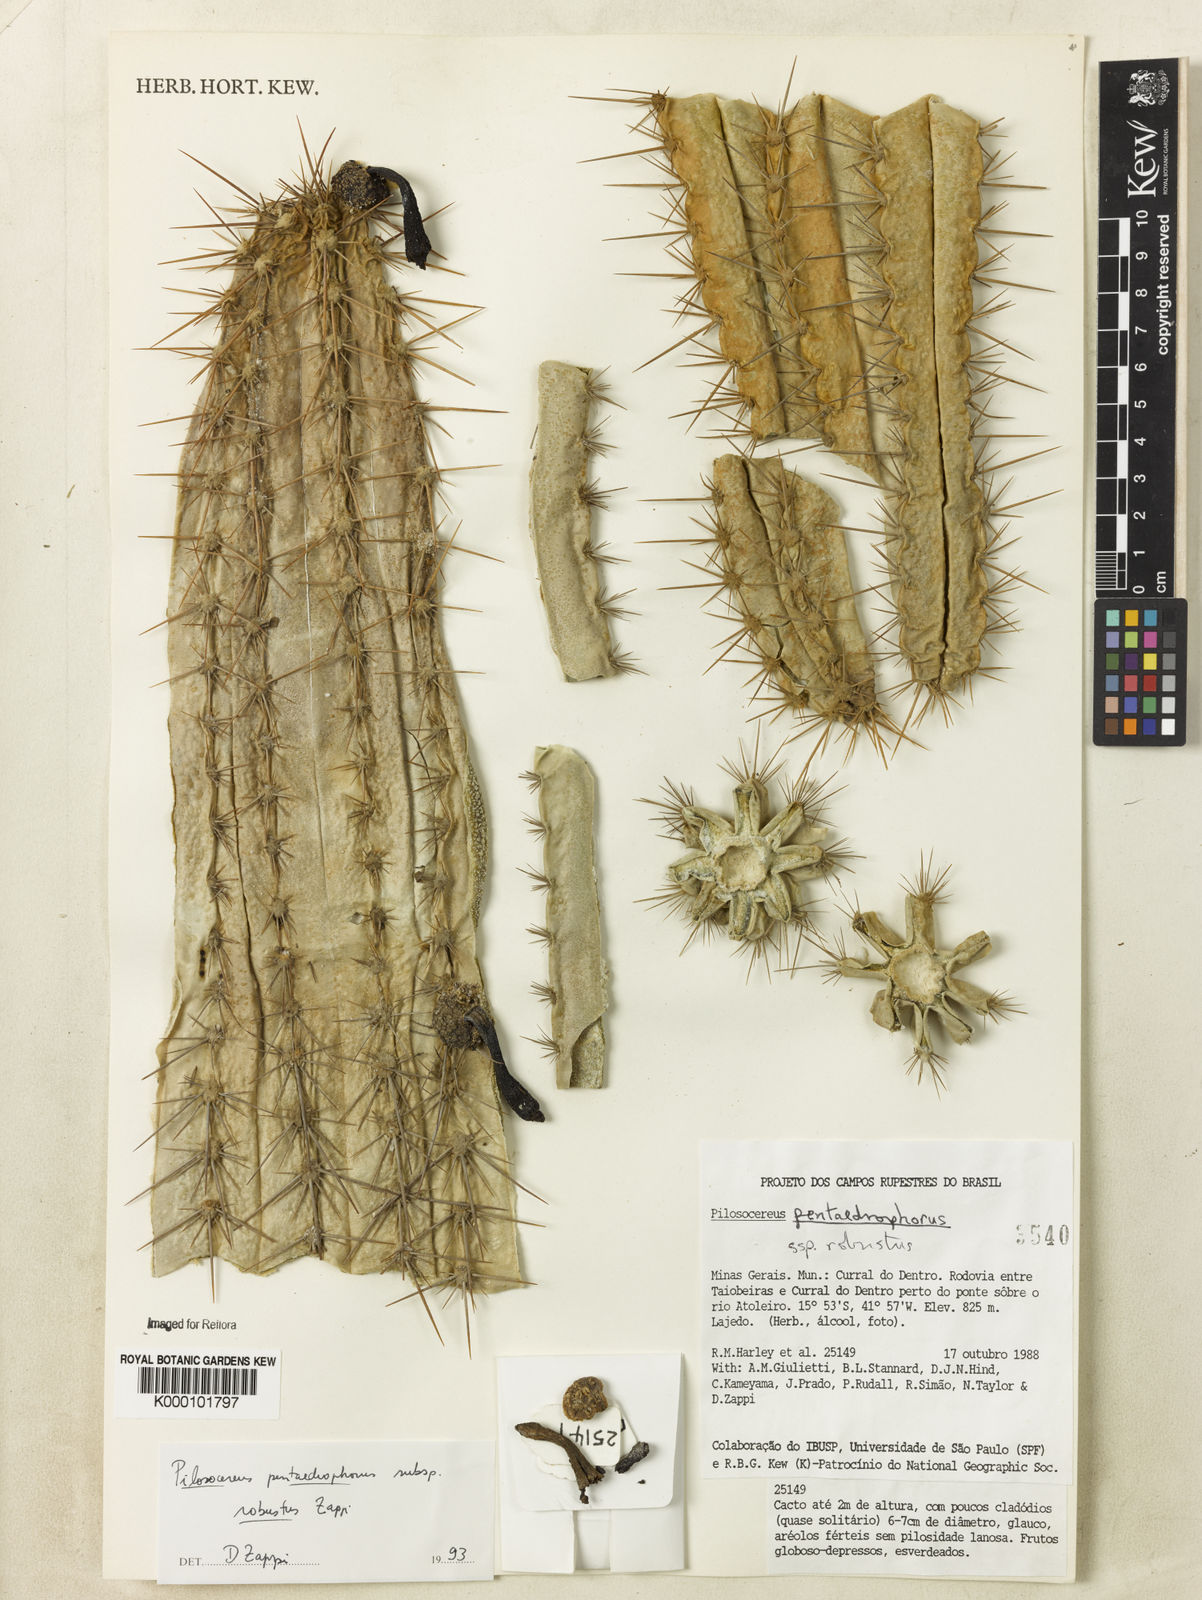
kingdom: Plantae
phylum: Tracheophyta
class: Magnoliopsida
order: Caryophyllales
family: Cactaceae
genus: Pilosocereus
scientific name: Pilosocereus pentaedrophorus
